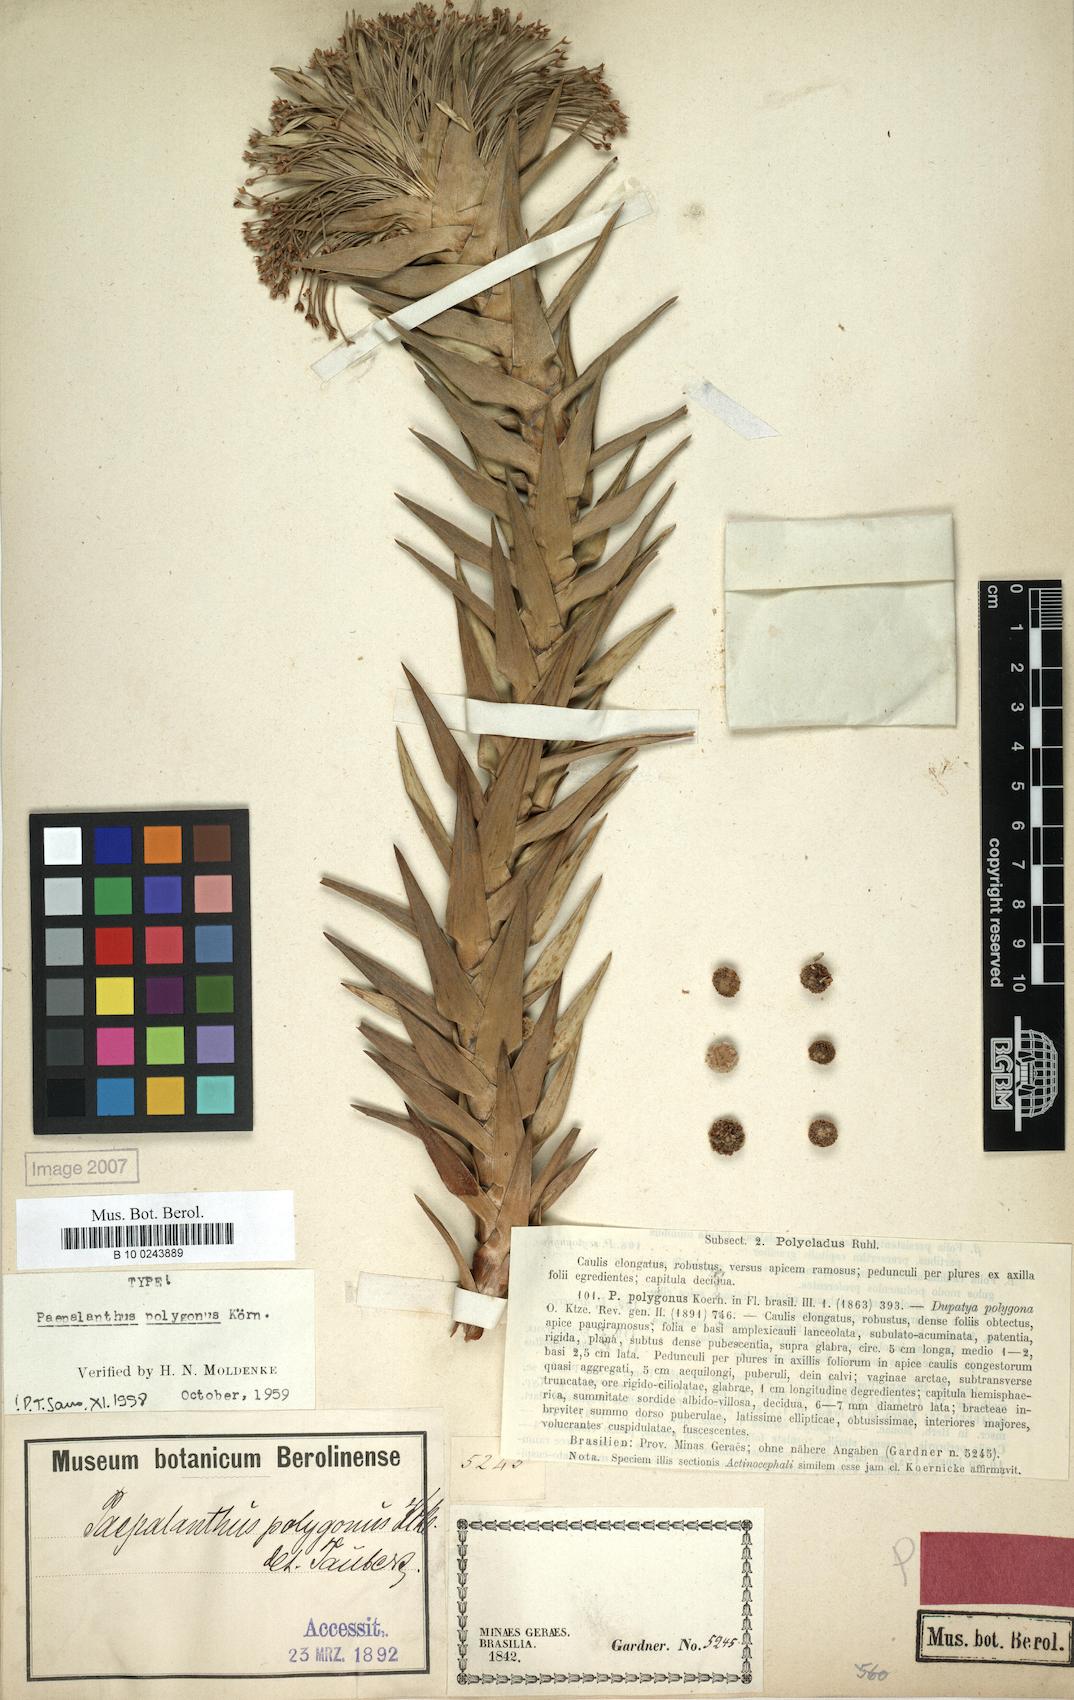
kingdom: Plantae
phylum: Tracheophyta
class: Liliopsida
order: Poales
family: Eriocaulaceae
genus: Paepalanthus
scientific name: Paepalanthus polygonus
